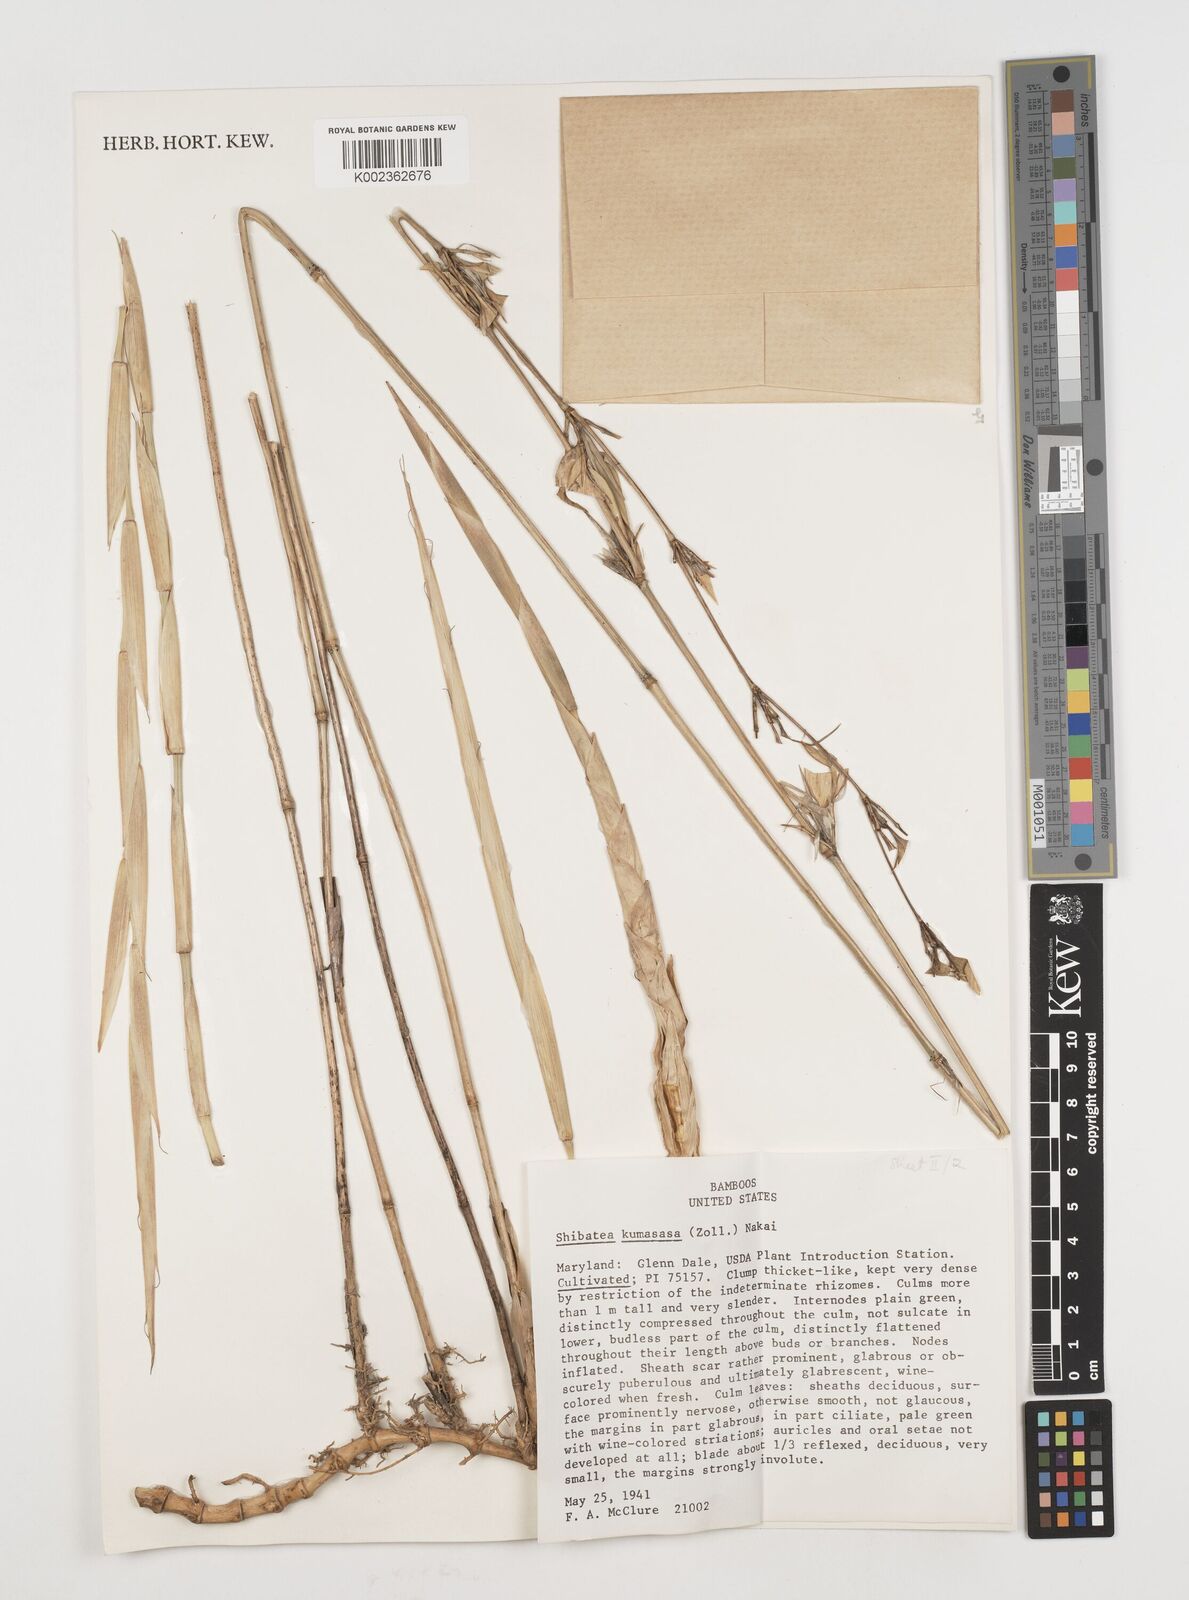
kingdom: Plantae
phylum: Tracheophyta
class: Liliopsida
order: Poales
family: Poaceae
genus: Shibataea
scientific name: Shibataea kumasasa
